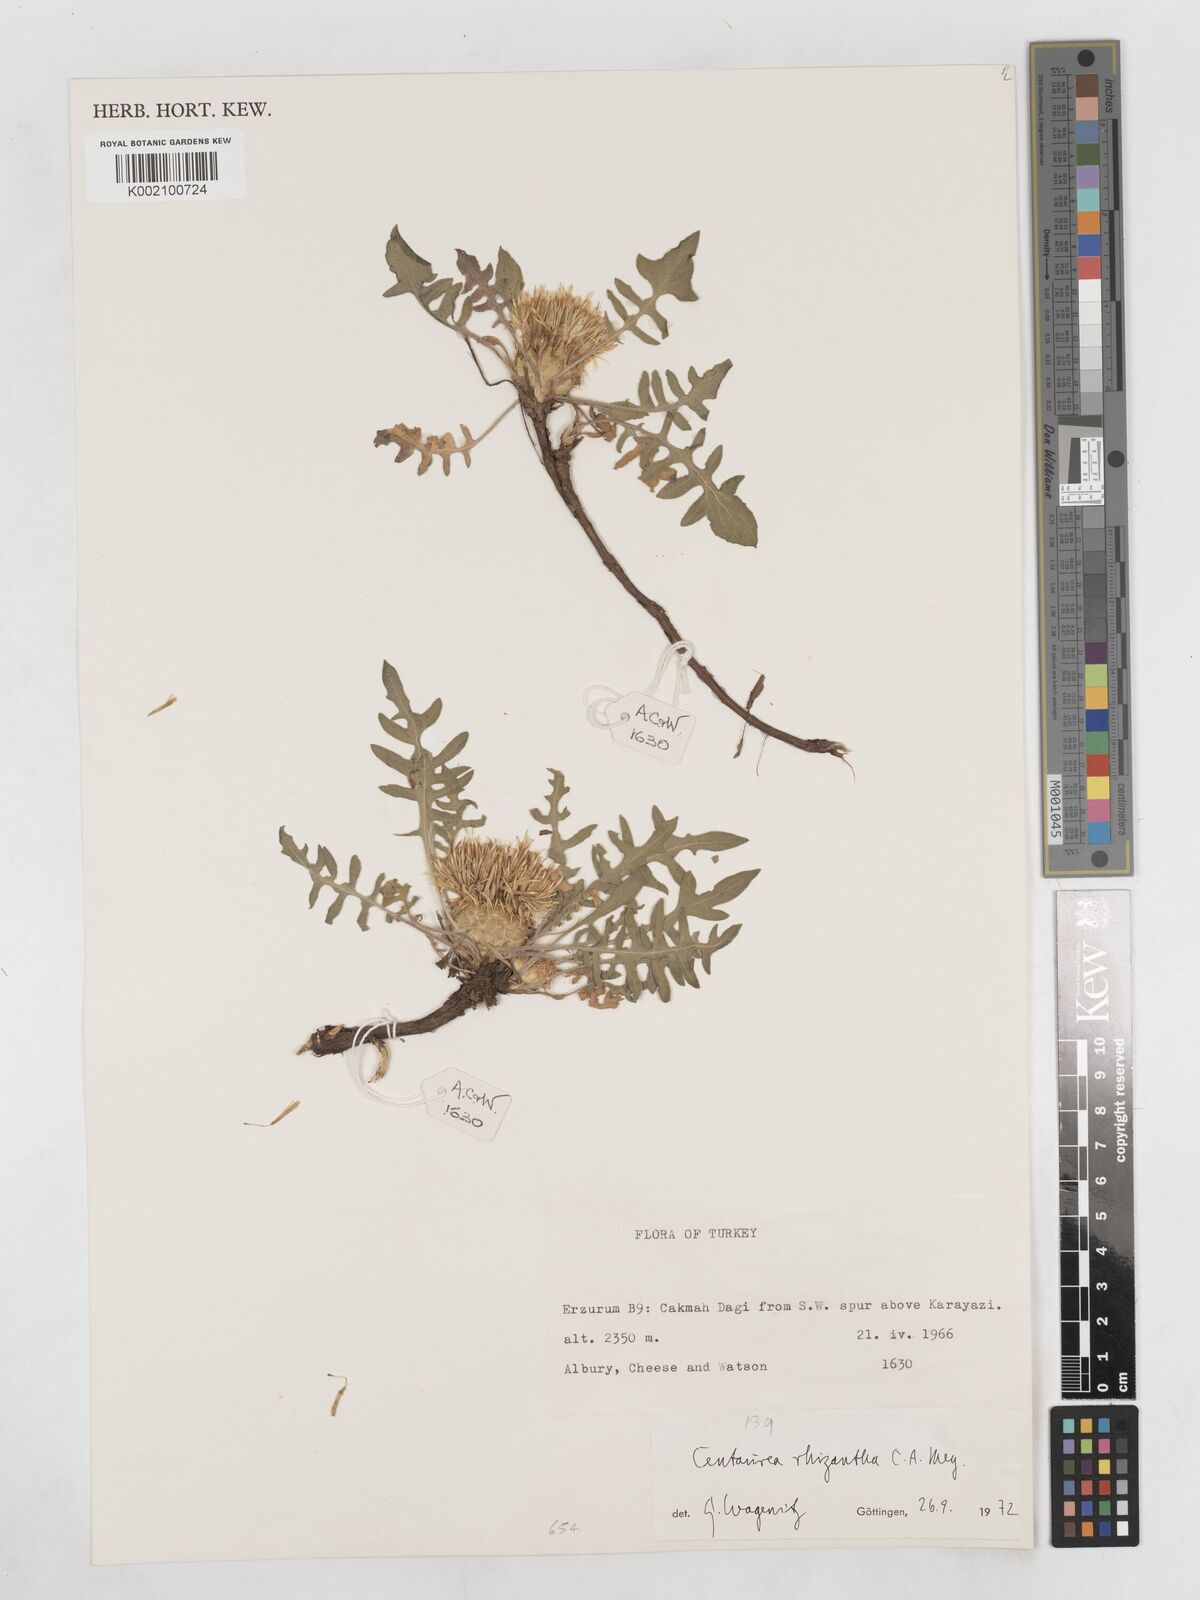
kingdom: Plantae
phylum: Tracheophyta
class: Magnoliopsida
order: Asterales
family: Asteraceae
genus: Centaurea
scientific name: Centaurea rhizantha
